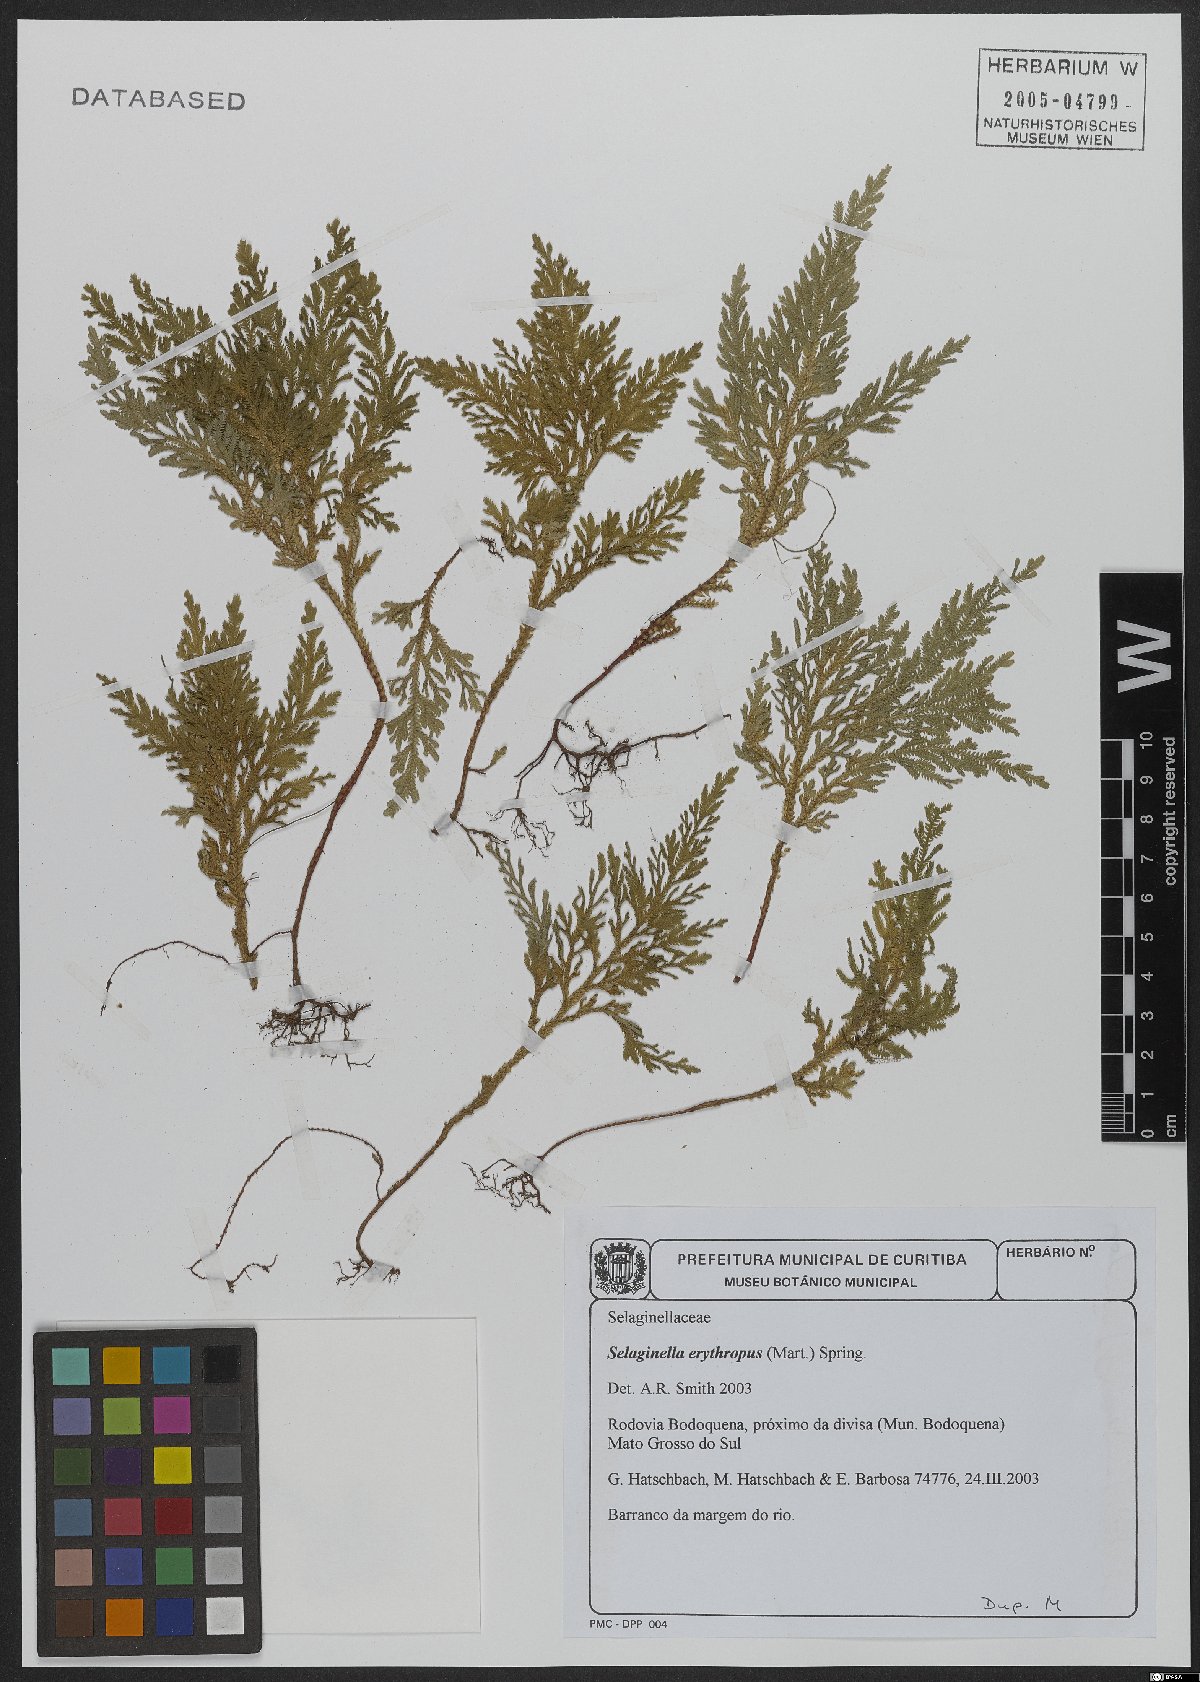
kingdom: Plantae
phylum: Tracheophyta
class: Lycopodiopsida
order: Selaginellales
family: Selaginellaceae
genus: Selaginella
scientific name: Selaginella erythropus
